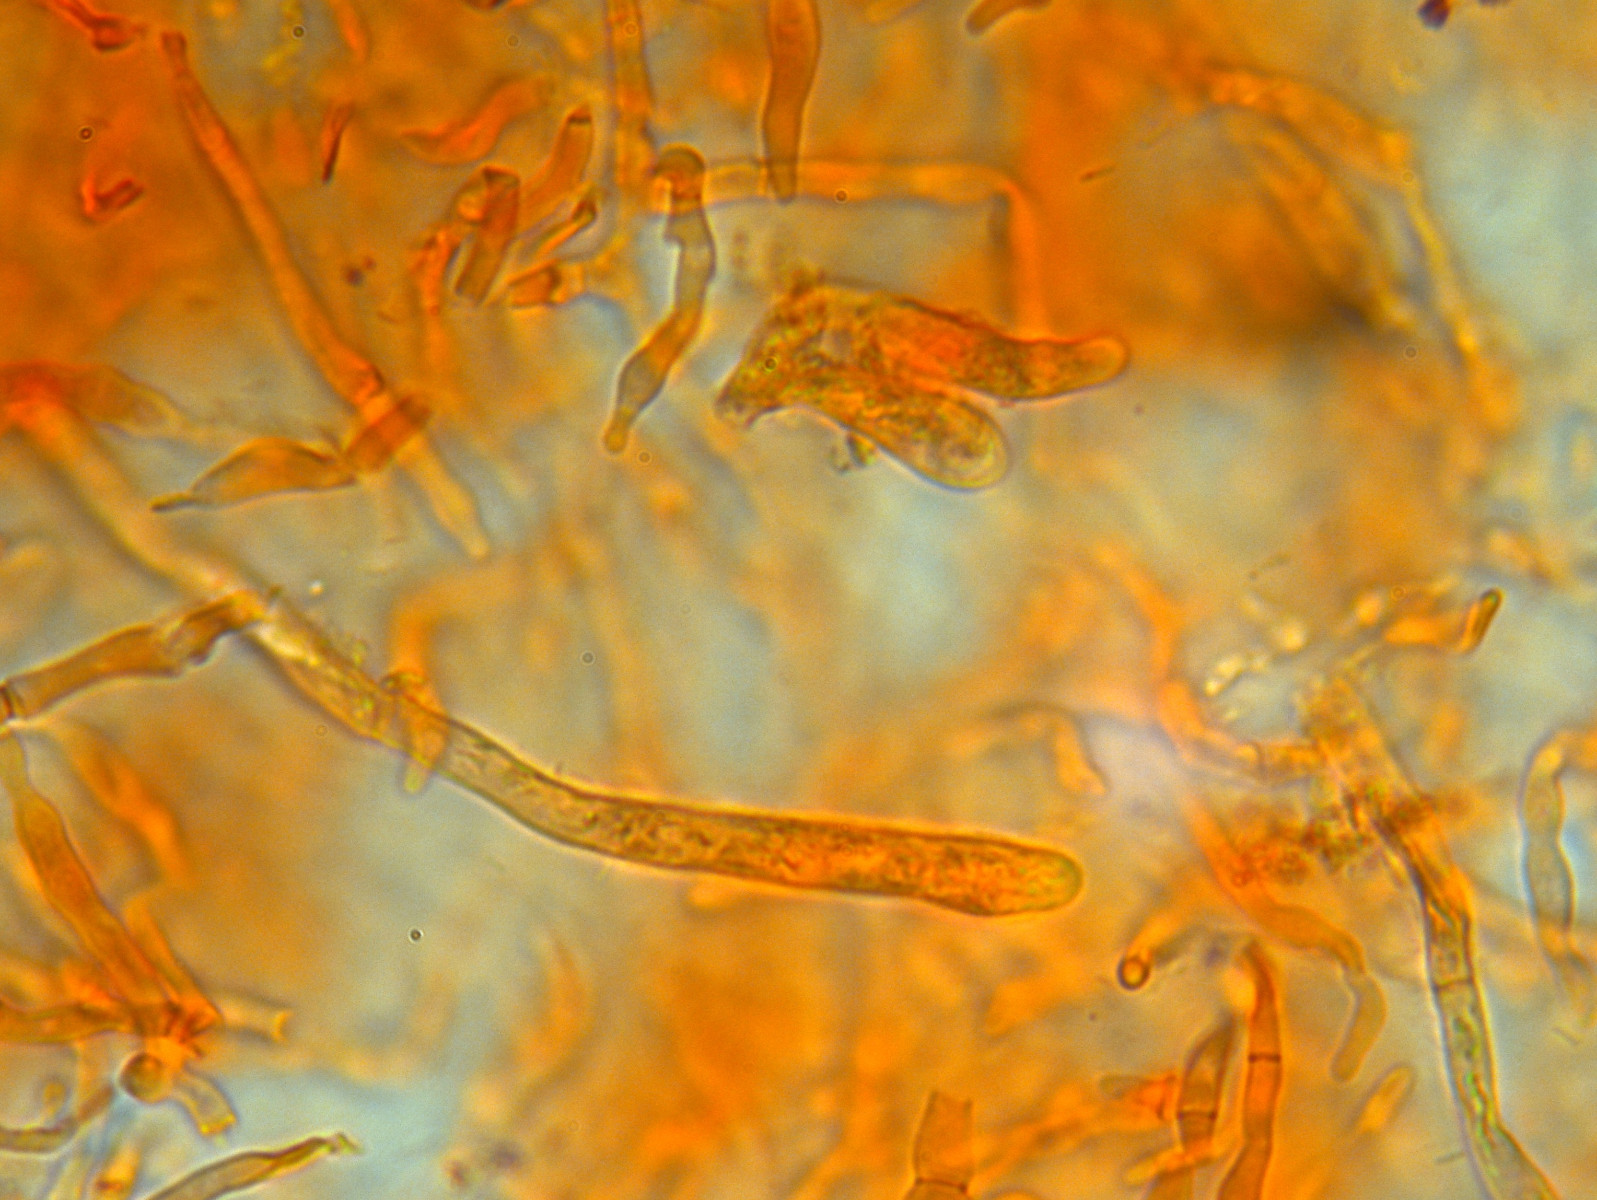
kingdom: Fungi
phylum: Basidiomycota
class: Agaricomycetes
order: Russulales
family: Russulaceae
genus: Russula
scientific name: Russula laeta
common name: orangerosa skørhat
